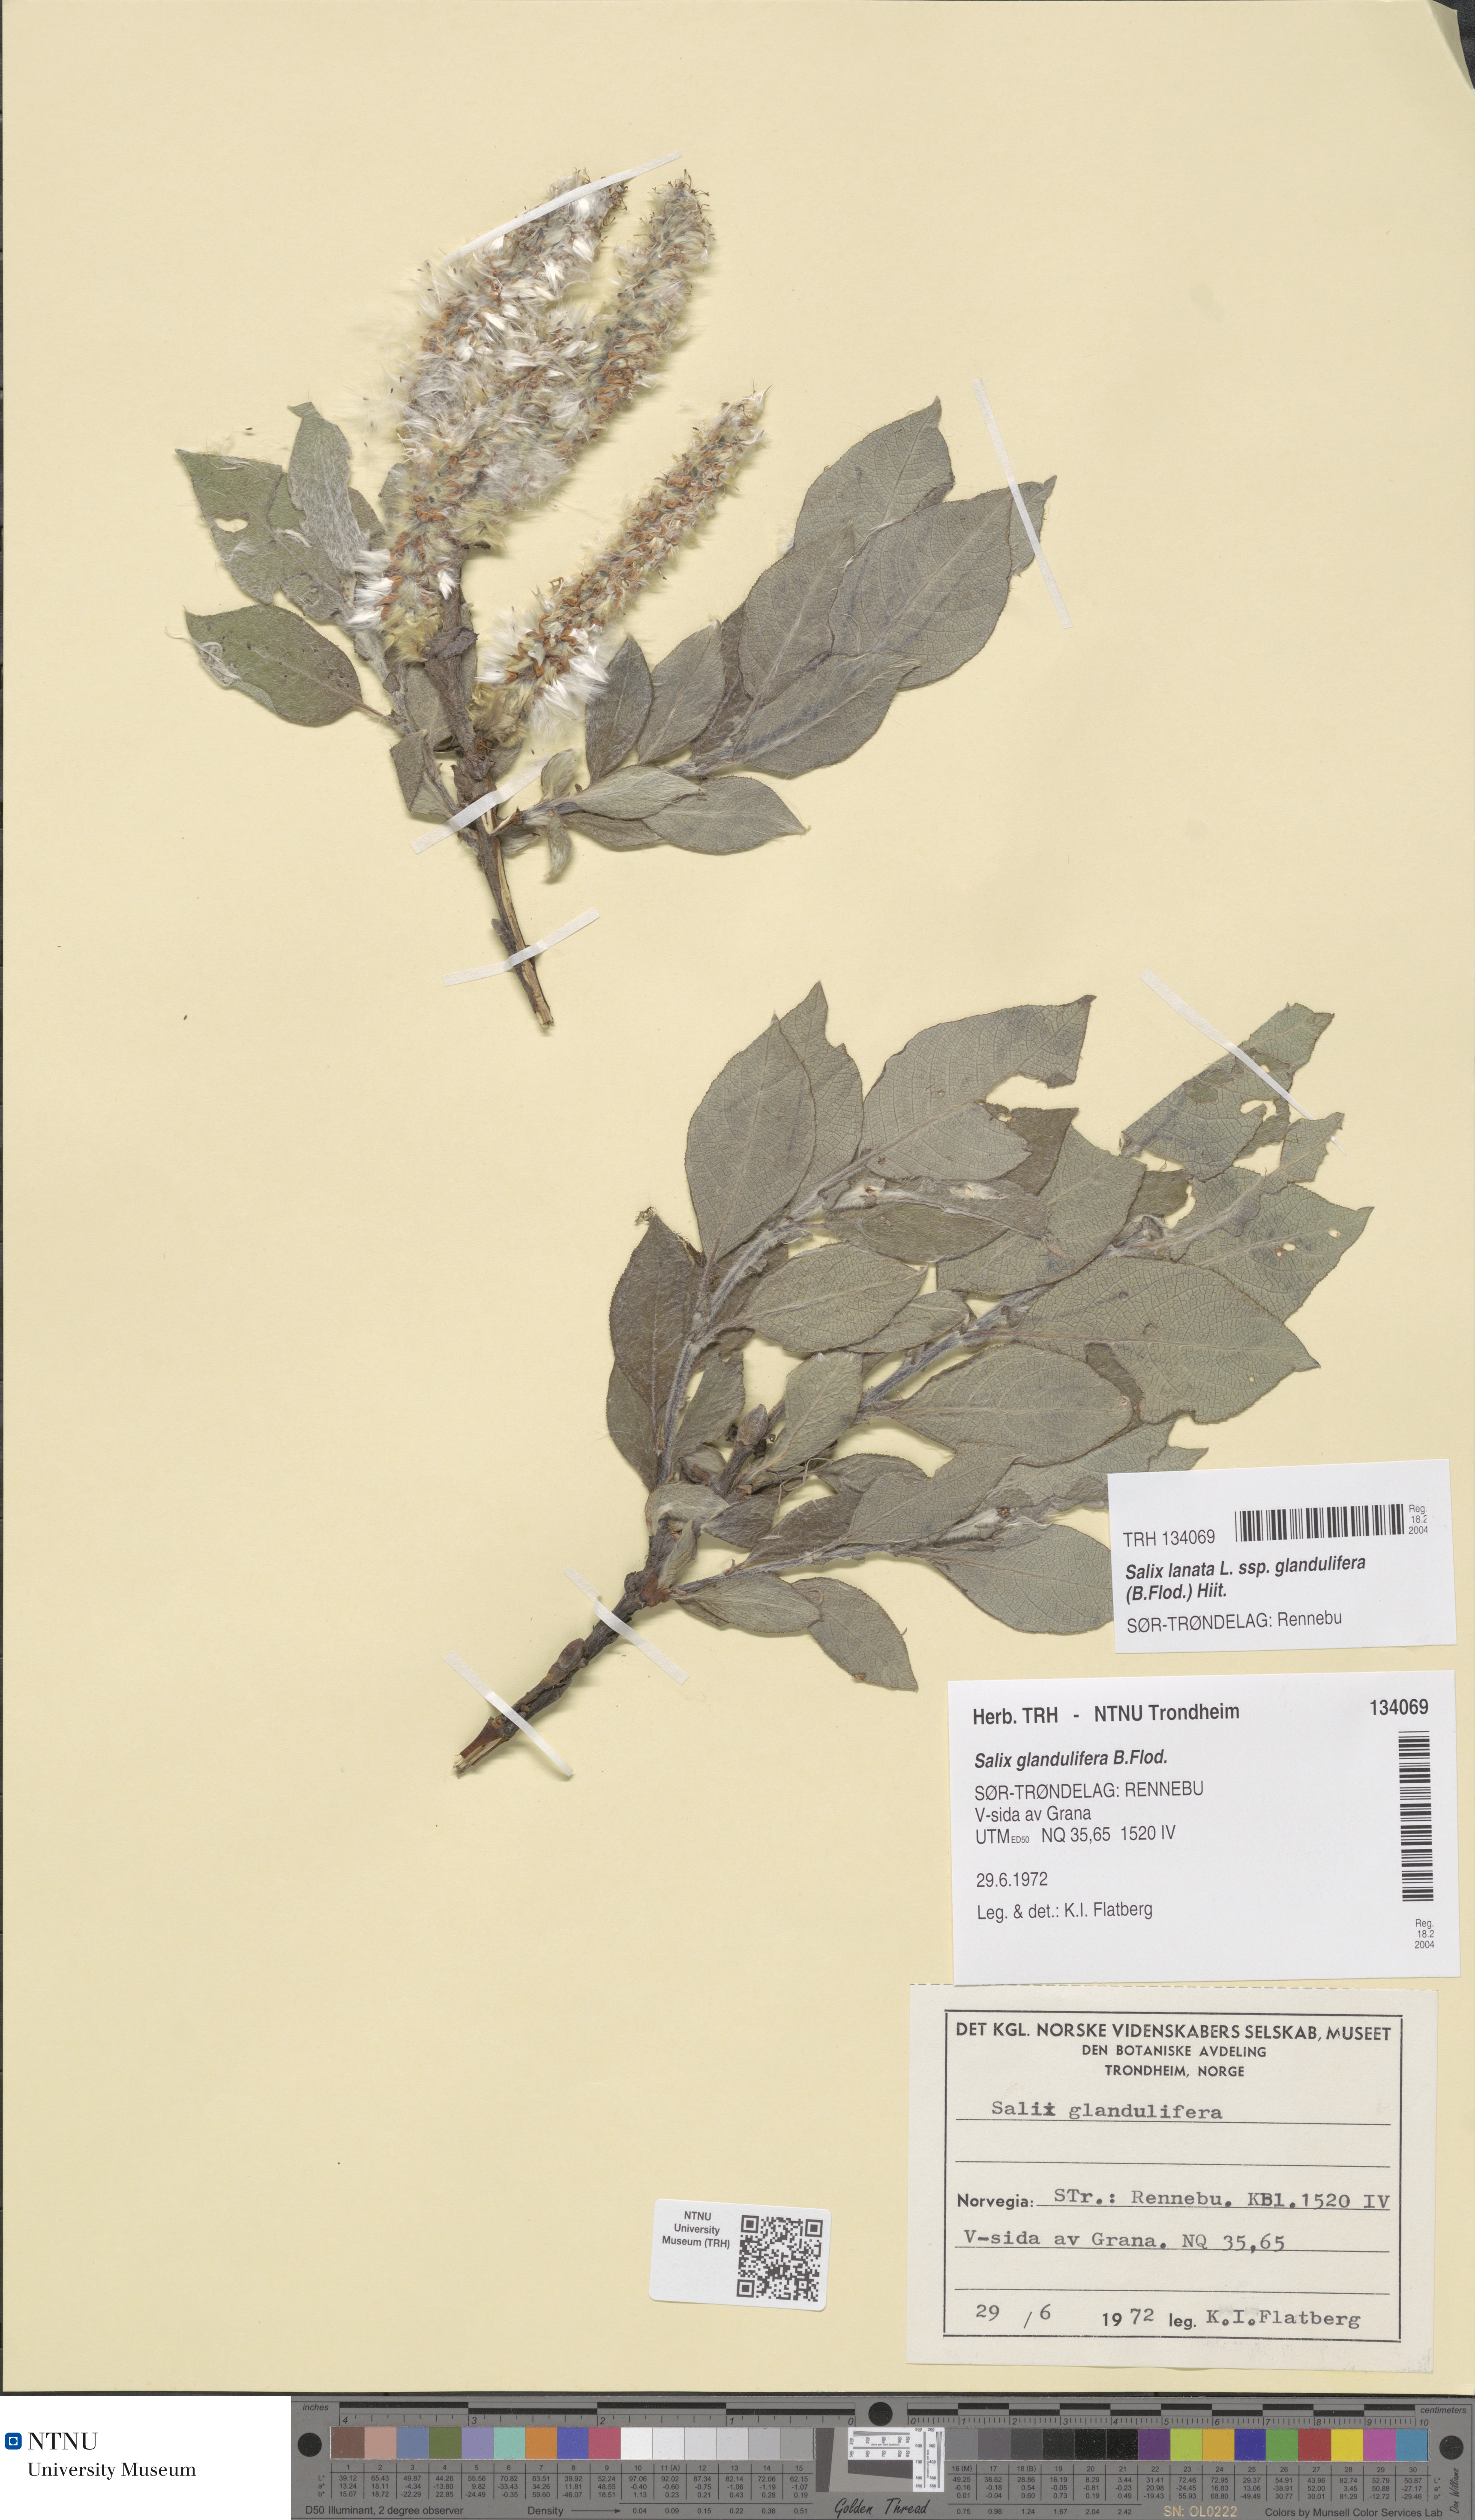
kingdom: Plantae
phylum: Tracheophyta
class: Magnoliopsida
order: Malpighiales
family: Salicaceae
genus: Salix
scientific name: Salix lanata
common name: Woolly willow
